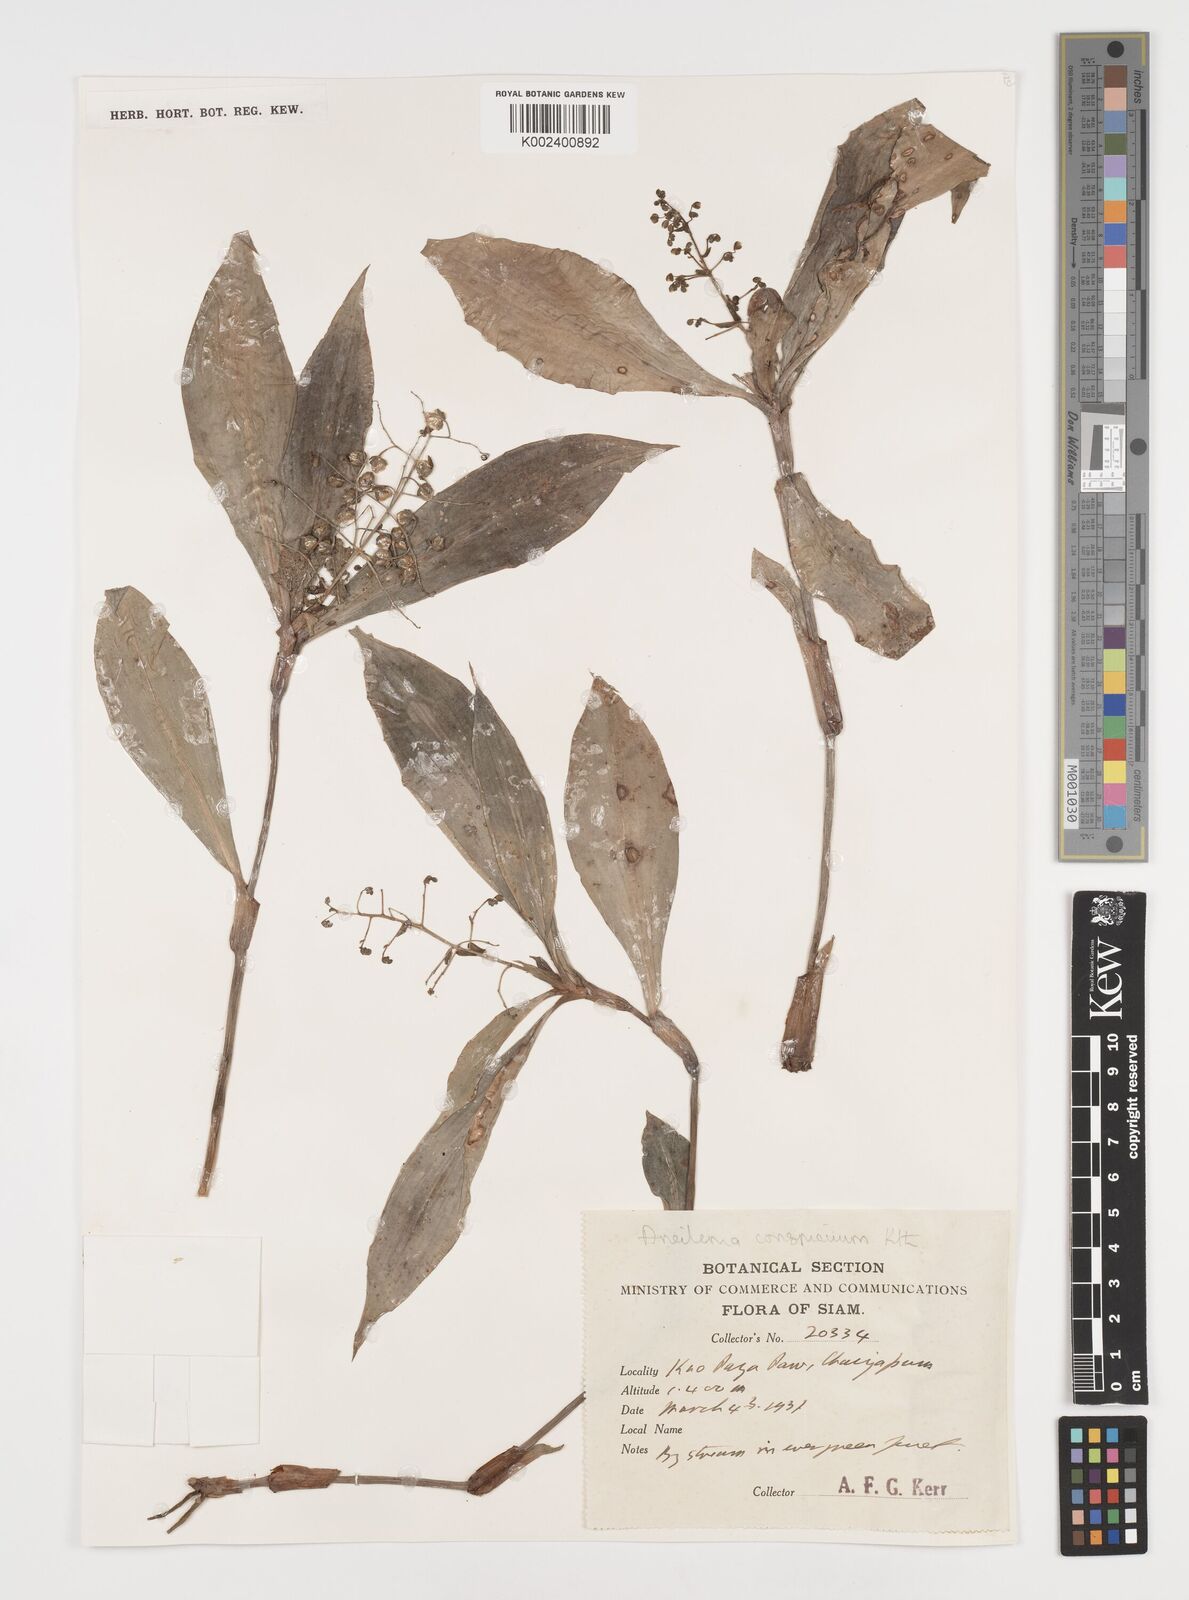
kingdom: Plantae
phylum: Tracheophyta
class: Liliopsida
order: Commelinales
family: Commelinaceae
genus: Dictyospermum
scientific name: Dictyospermum conspicuum
